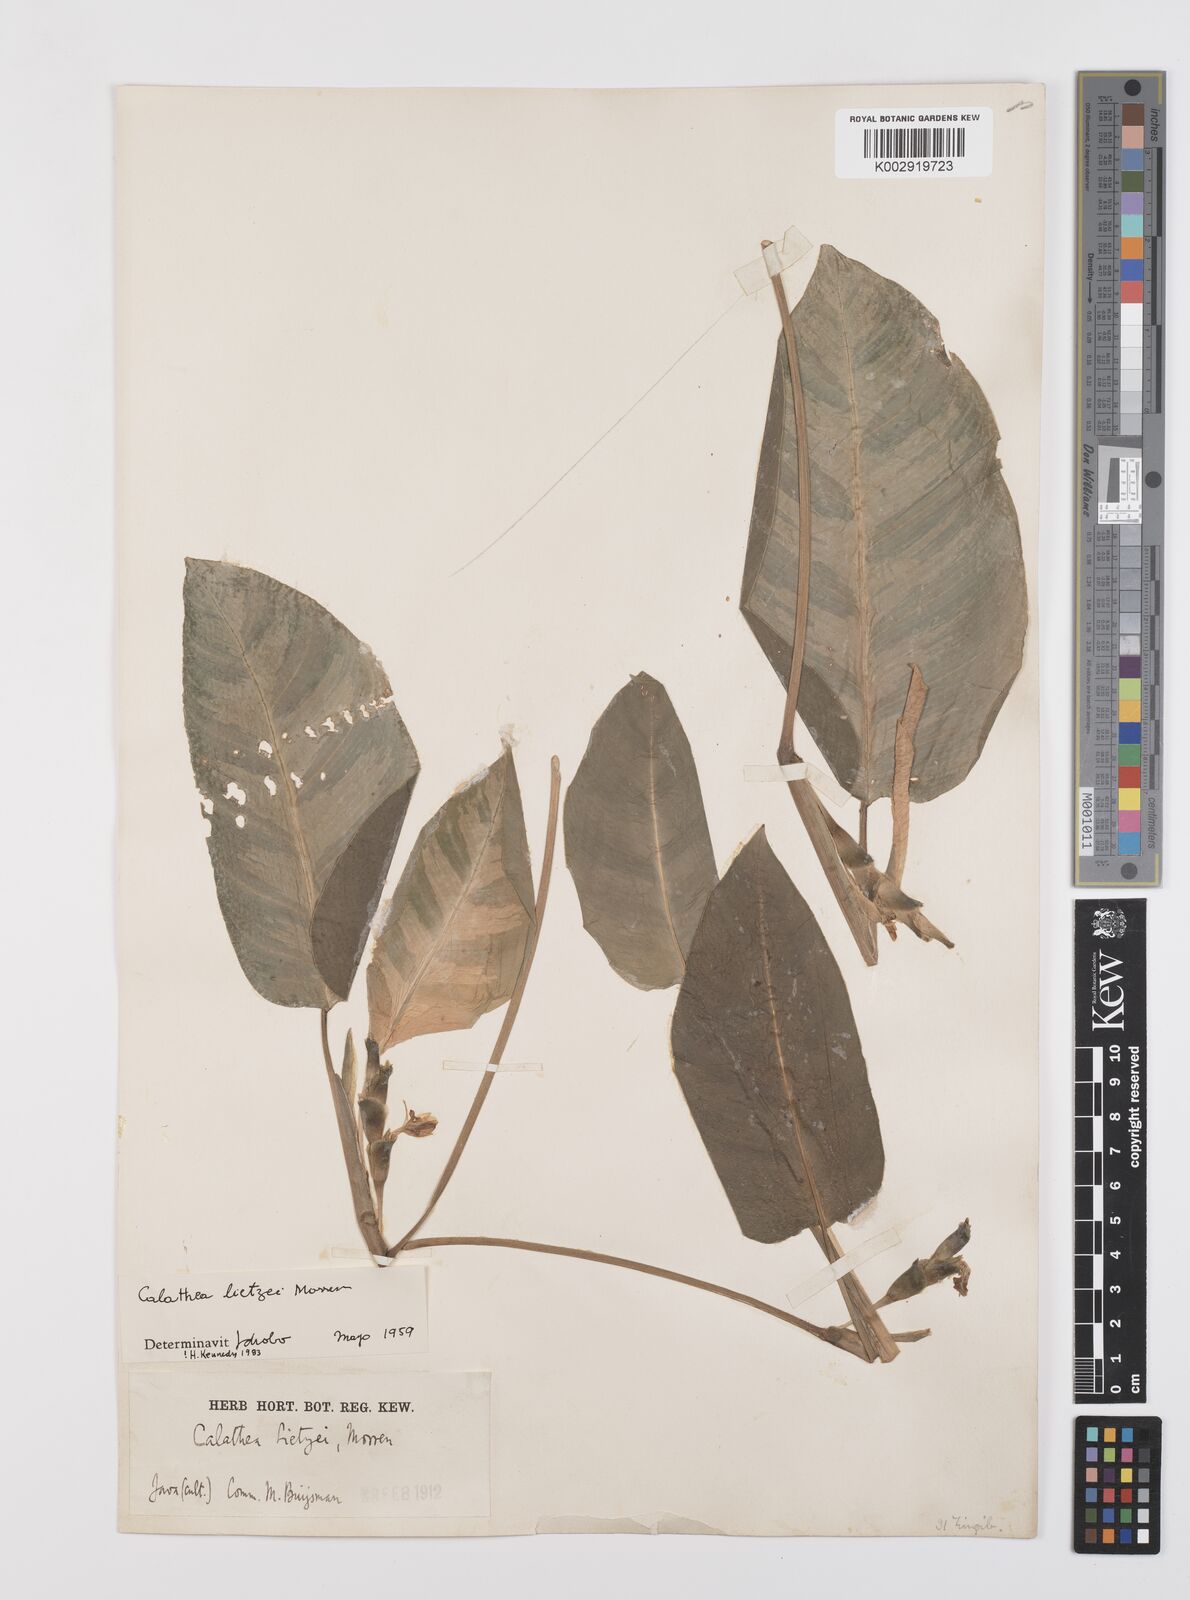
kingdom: Plantae
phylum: Tracheophyta
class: Liliopsida
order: Zingiberales
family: Marantaceae
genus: Goeppertia
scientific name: Goeppertia lietzei
